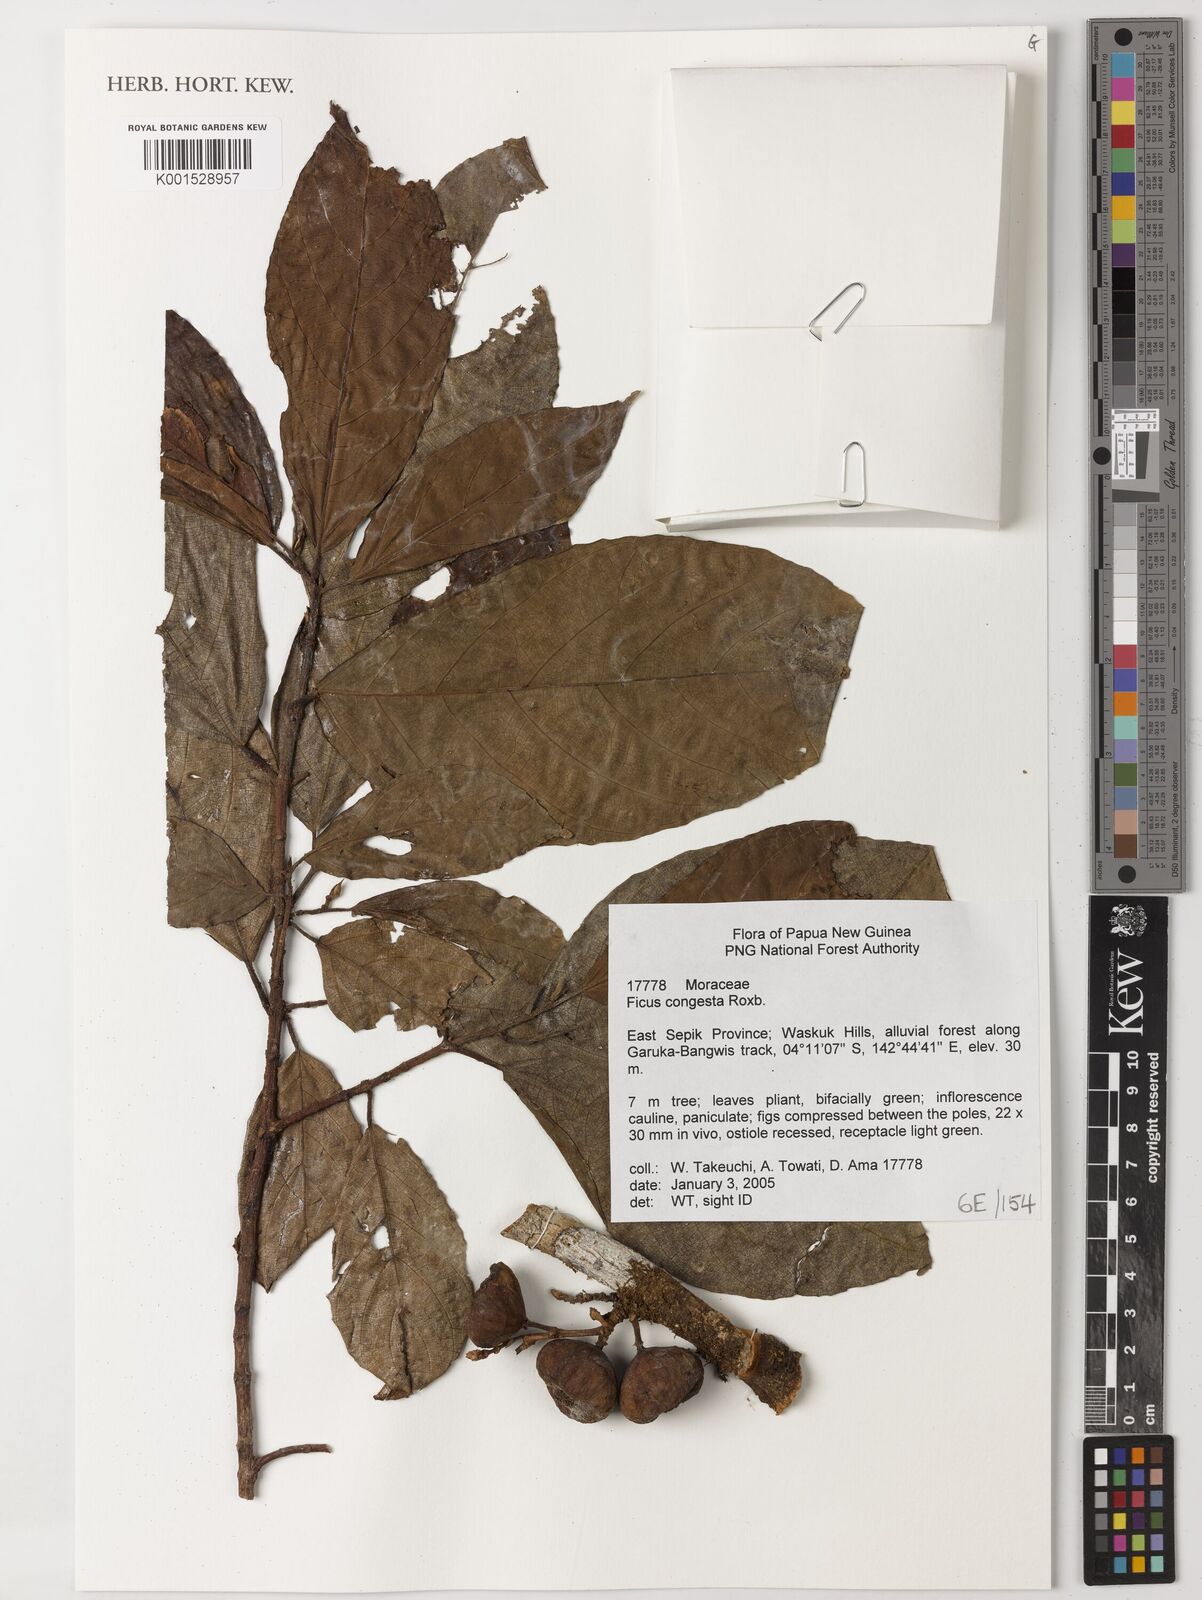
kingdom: Plantae
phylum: Tracheophyta
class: Magnoliopsida
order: Rosales
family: Moraceae
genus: Ficus
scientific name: Ficus congesta
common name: Cluster fig
